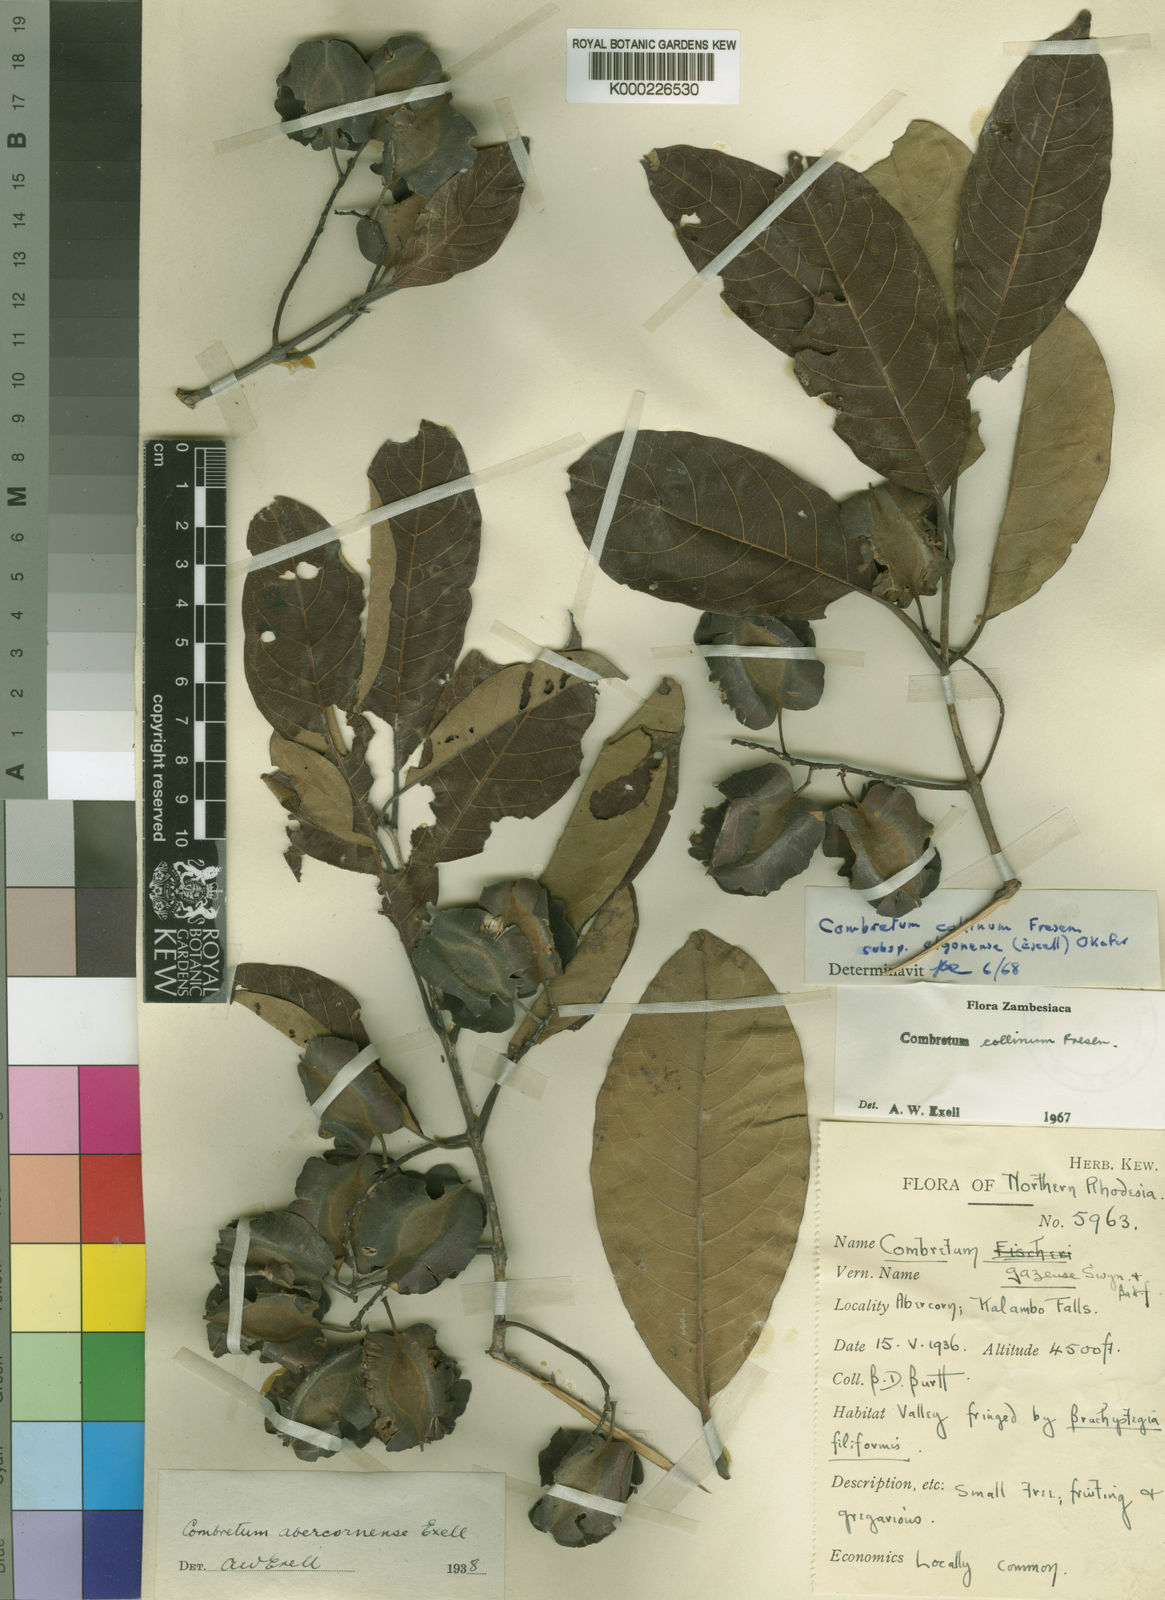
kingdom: Plantae
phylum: Tracheophyta
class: Magnoliopsida
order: Myrtales
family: Combretaceae
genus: Combretum
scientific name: Combretum collinum
